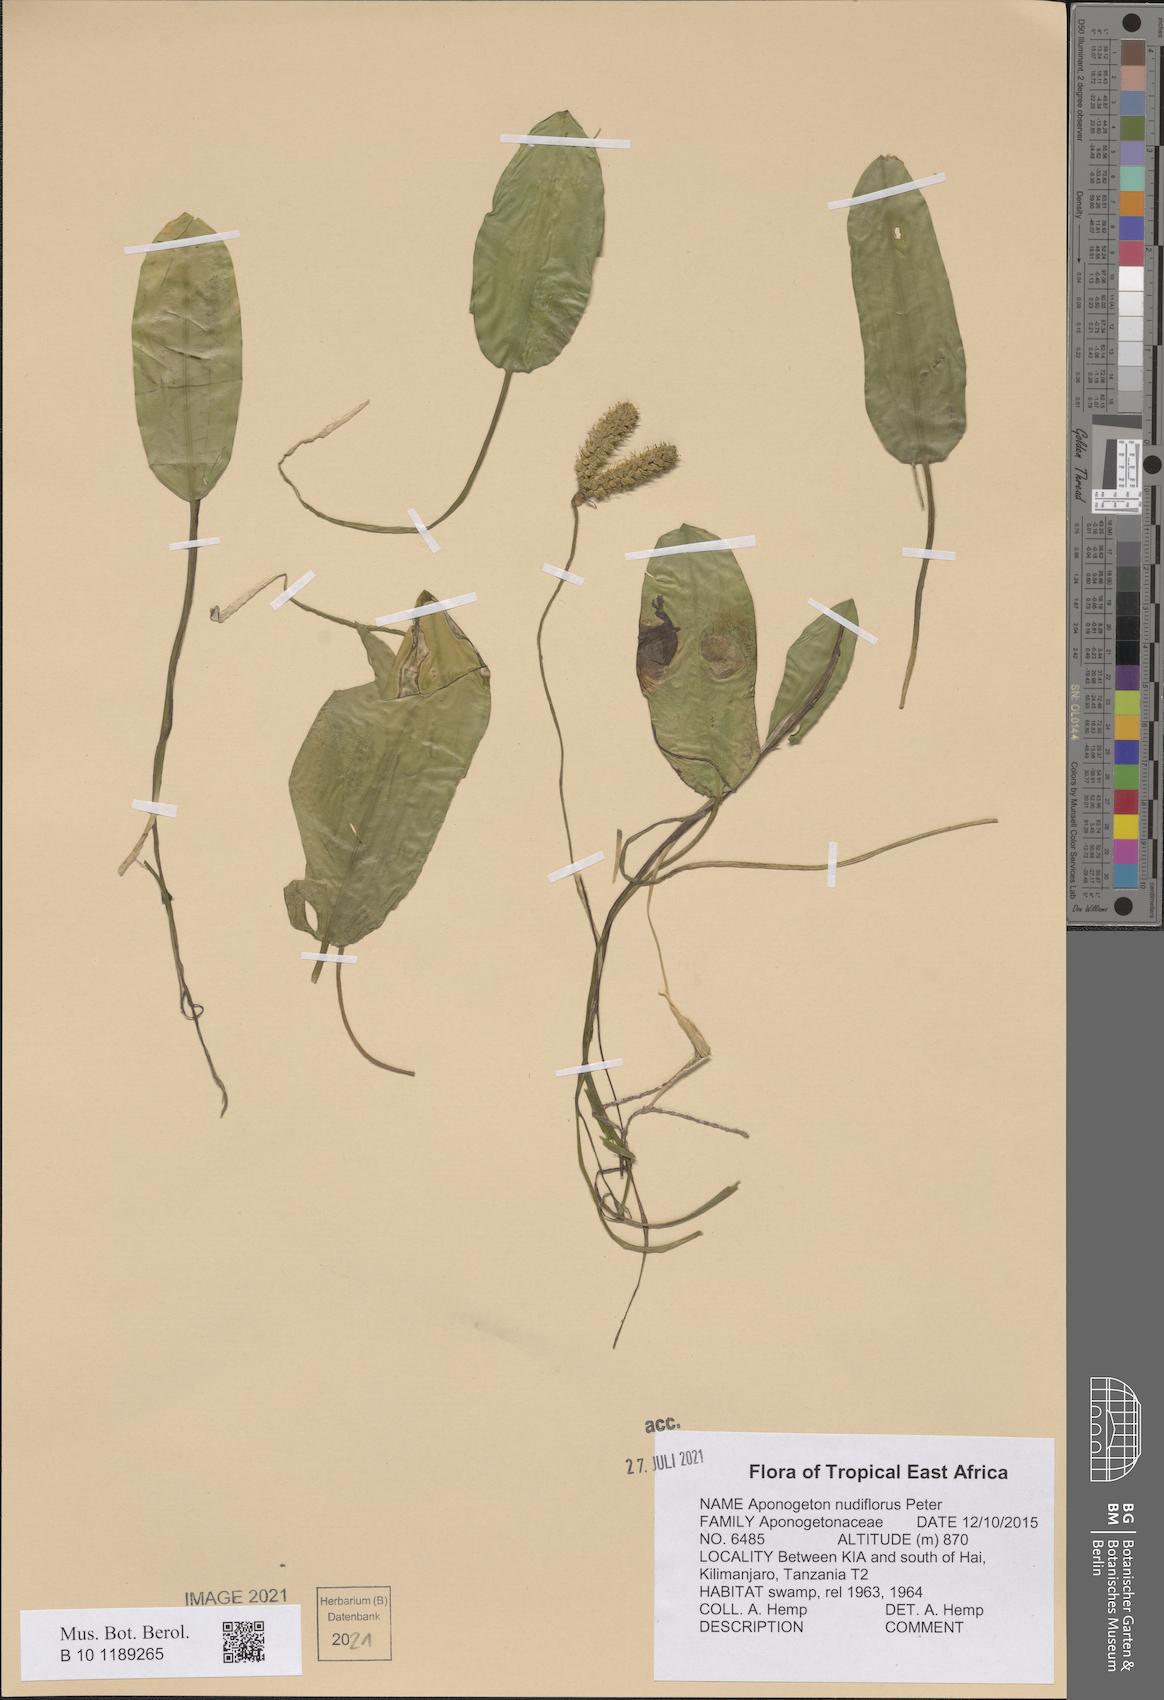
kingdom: Plantae
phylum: Tracheophyta
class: Liliopsida
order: Alismatales
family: Aponogetonaceae
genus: Aponogeton
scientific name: Aponogeton nudiflorus
